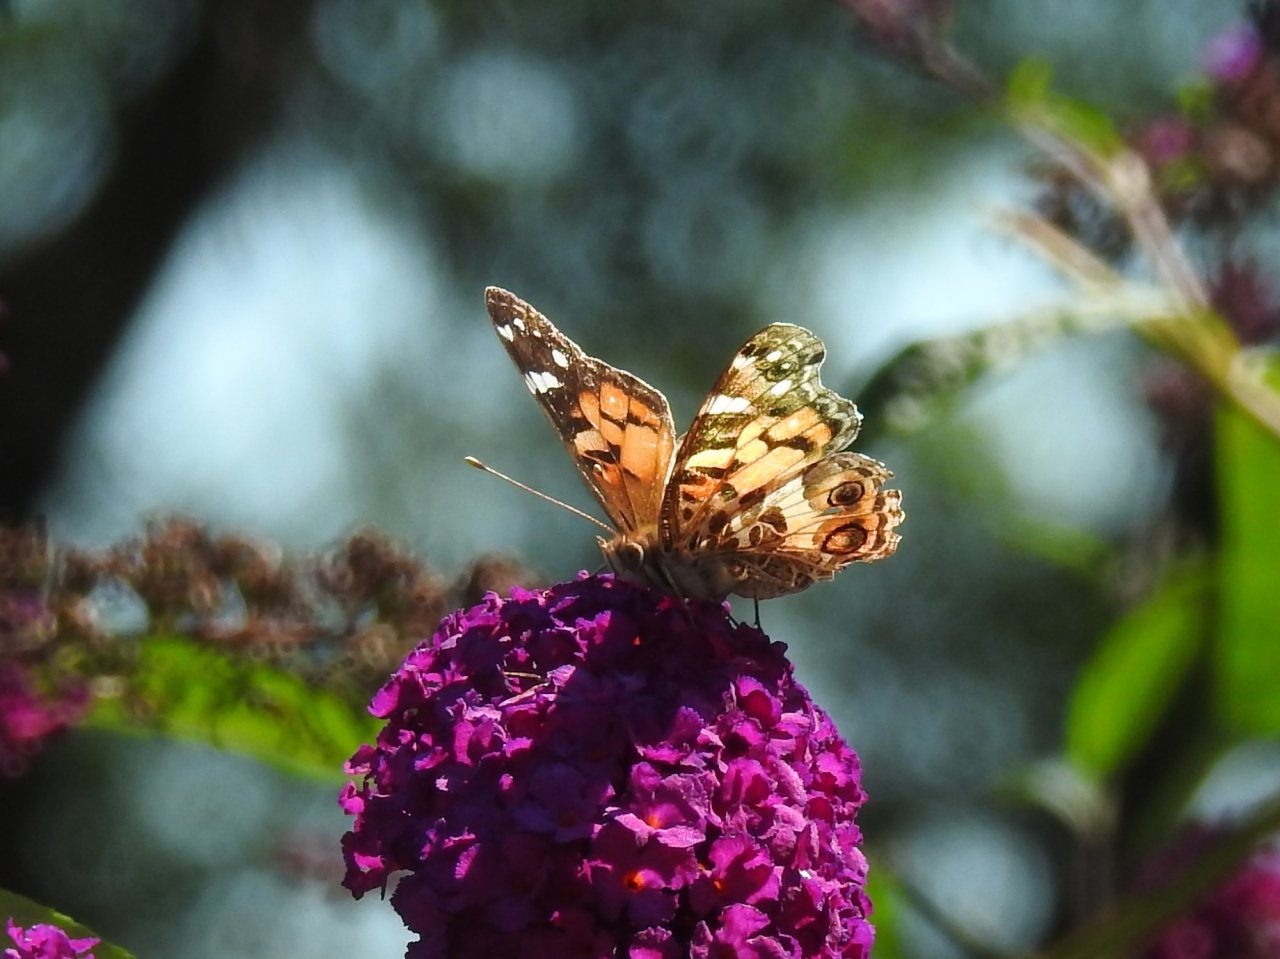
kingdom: Animalia
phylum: Arthropoda
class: Insecta
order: Lepidoptera
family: Nymphalidae
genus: Vanessa
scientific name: Vanessa virginiensis
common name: American Lady
